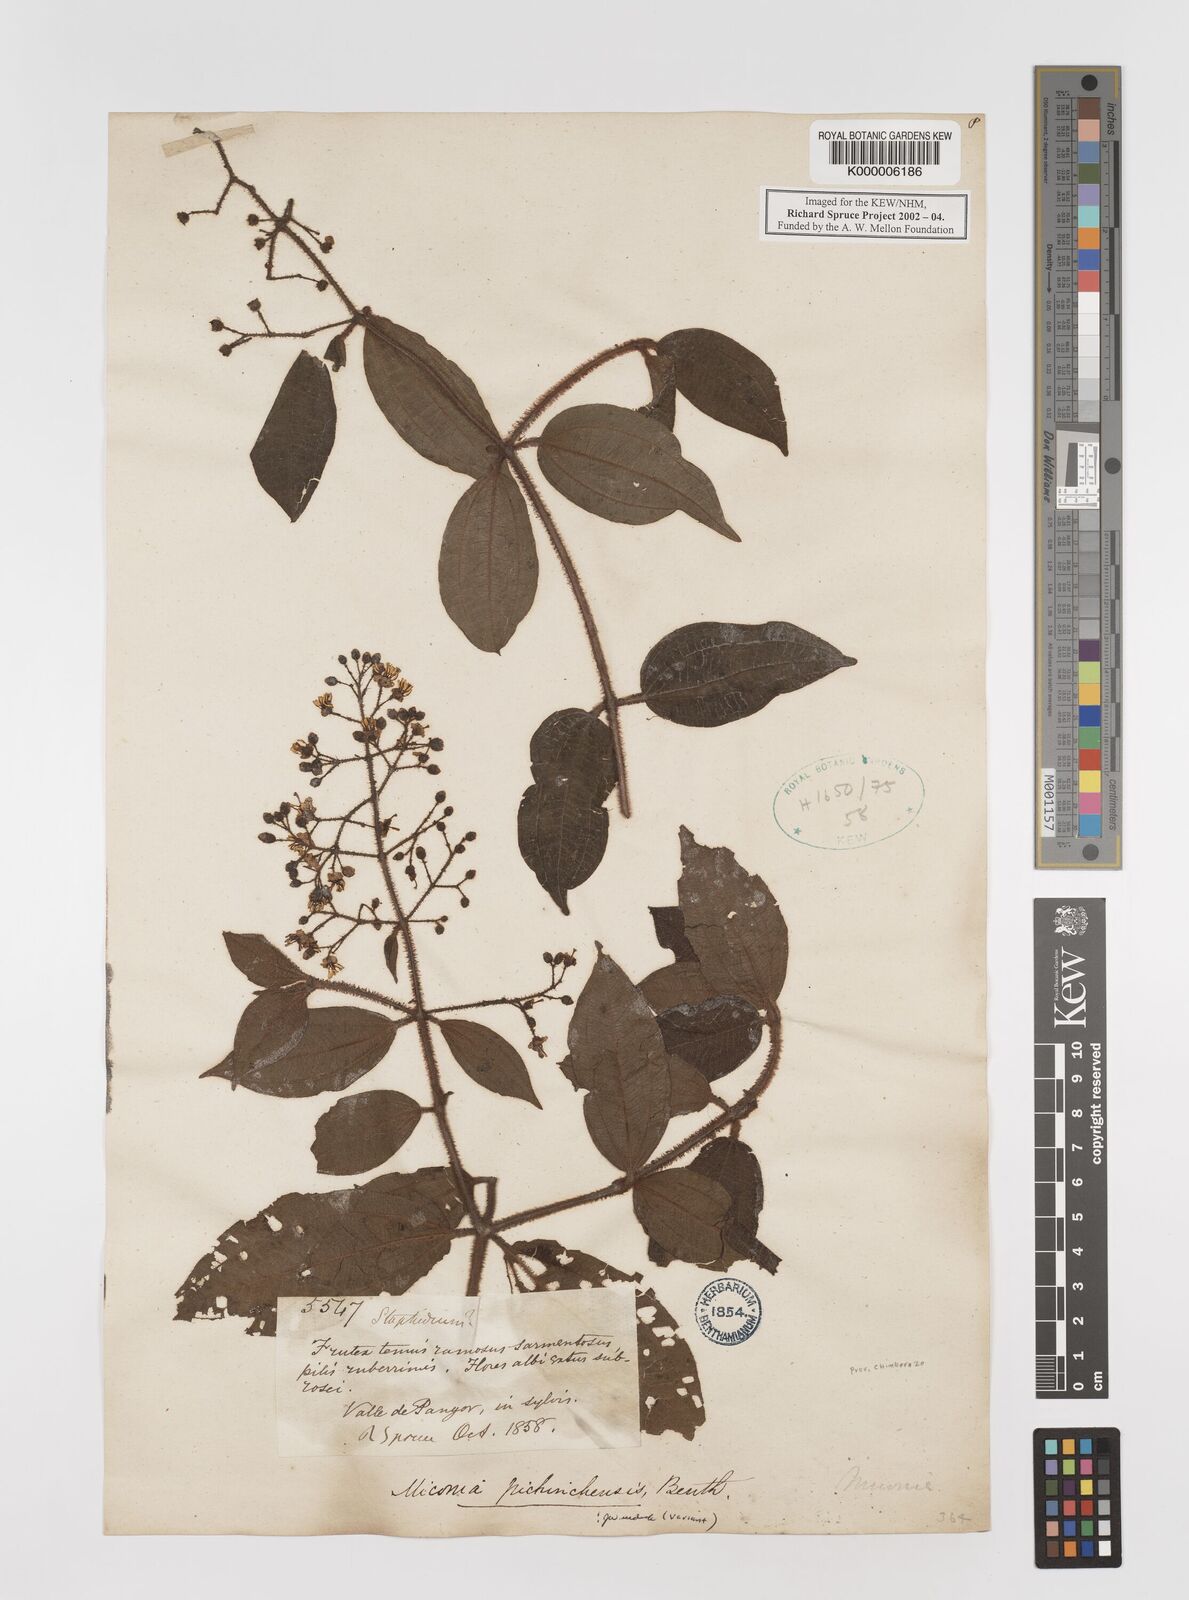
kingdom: Plantae
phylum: Tracheophyta
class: Magnoliopsida
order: Myrtales
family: Melastomataceae
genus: Miconia
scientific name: Miconia pichinchensis
